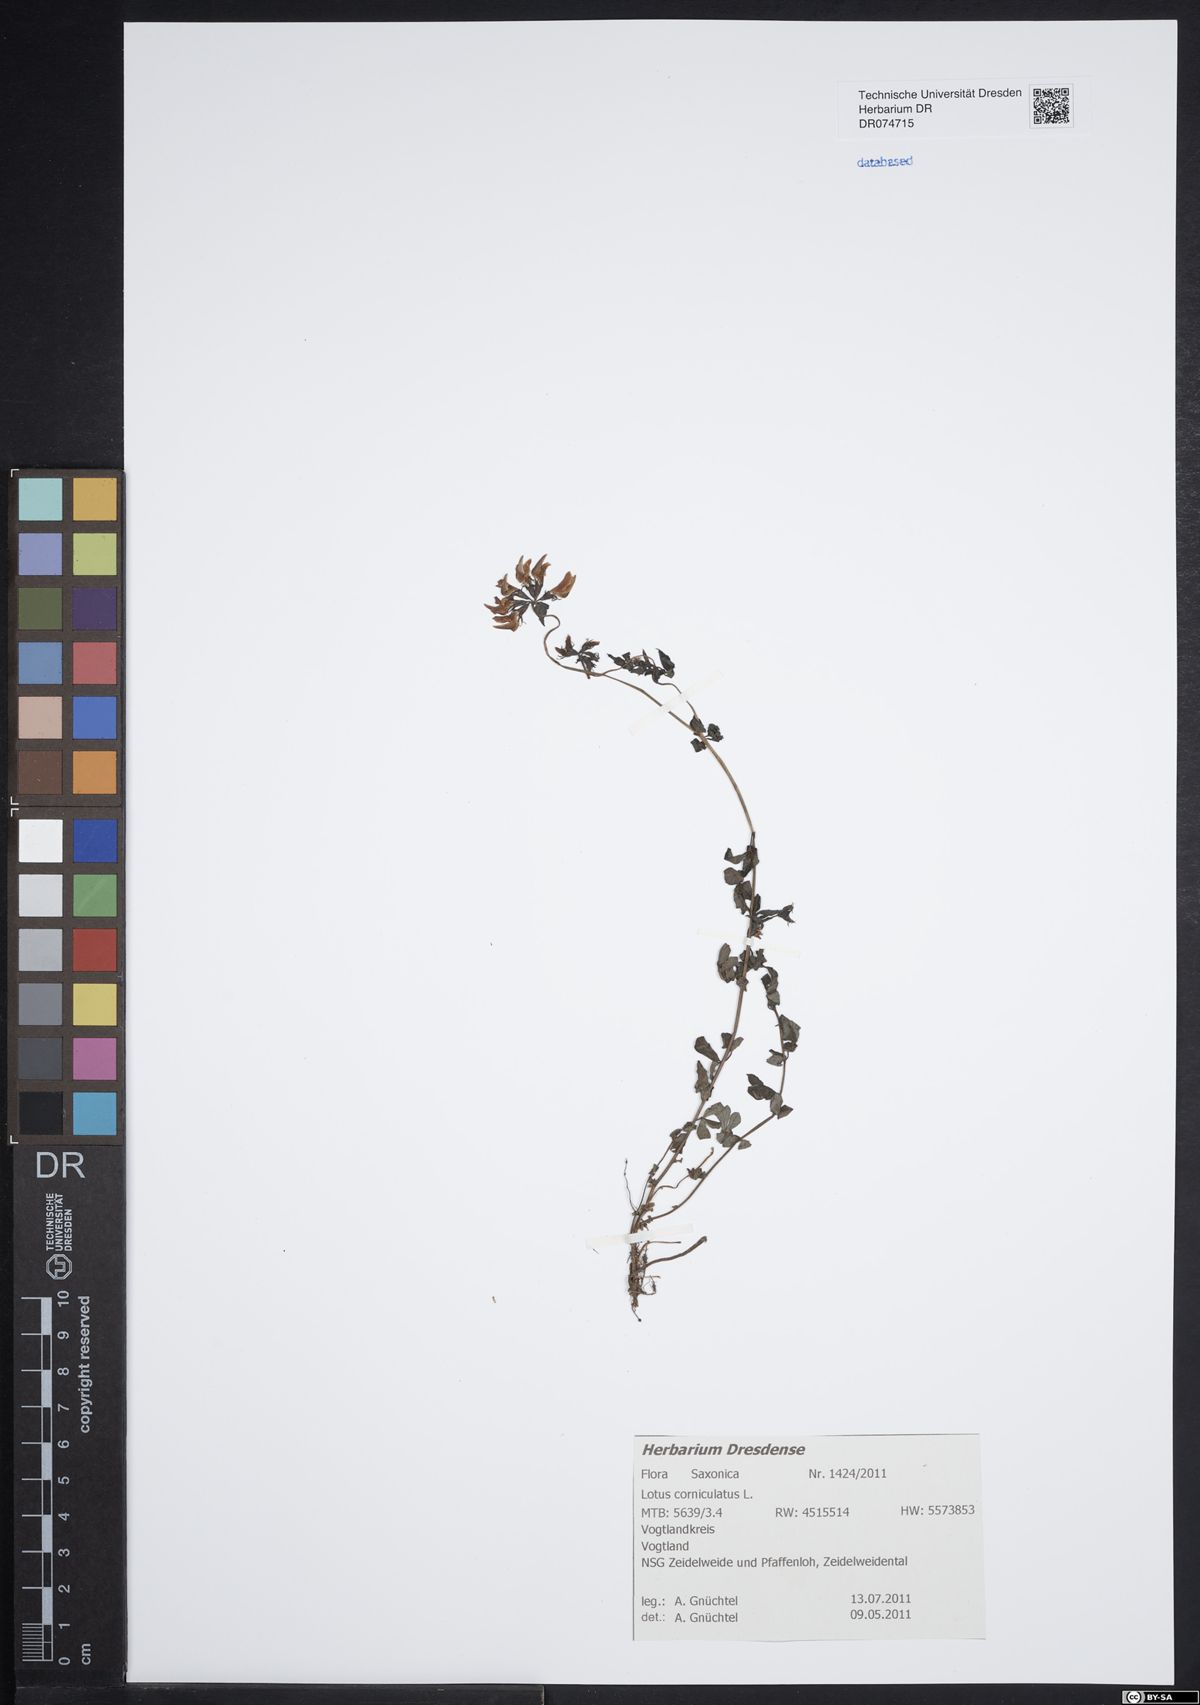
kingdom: Plantae
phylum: Tracheophyta
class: Magnoliopsida
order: Fabales
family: Fabaceae
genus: Lotus
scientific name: Lotus corniculatus
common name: Common bird's-foot-trefoil
